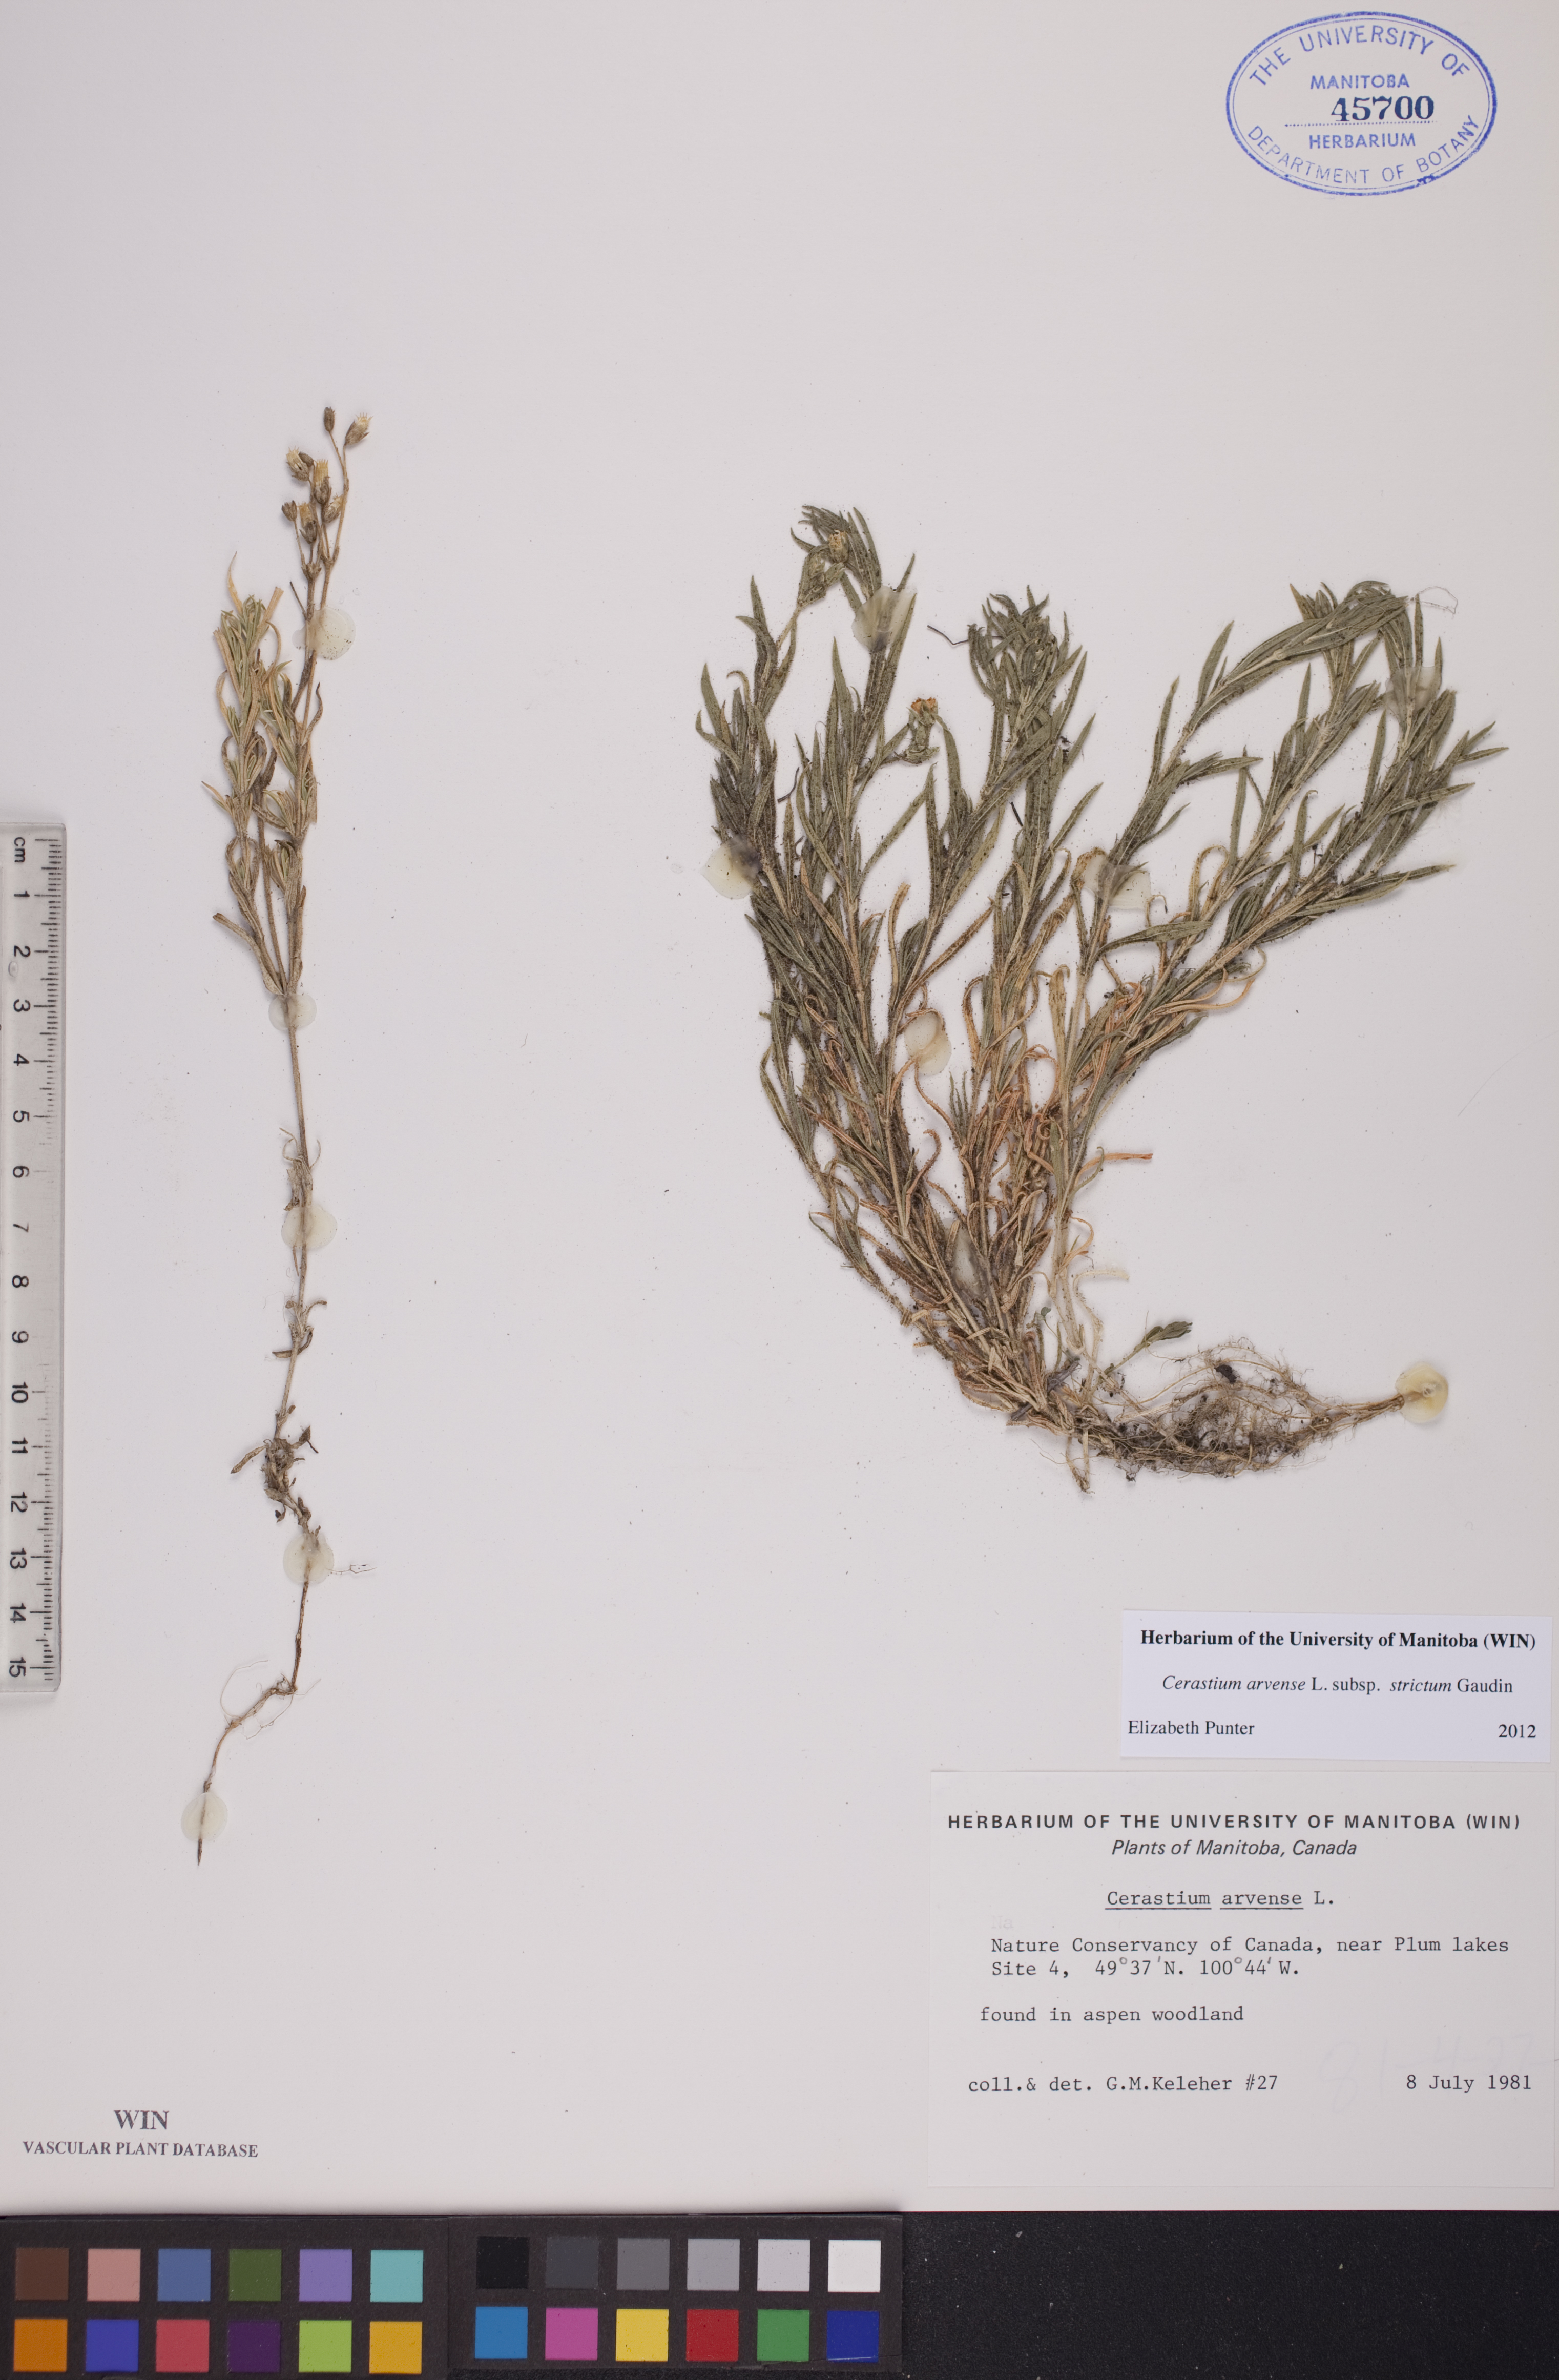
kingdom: Plantae
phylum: Tracheophyta
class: Magnoliopsida
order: Caryophyllales
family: Caryophyllaceae
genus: Cerastium
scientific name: Cerastium elongatum
